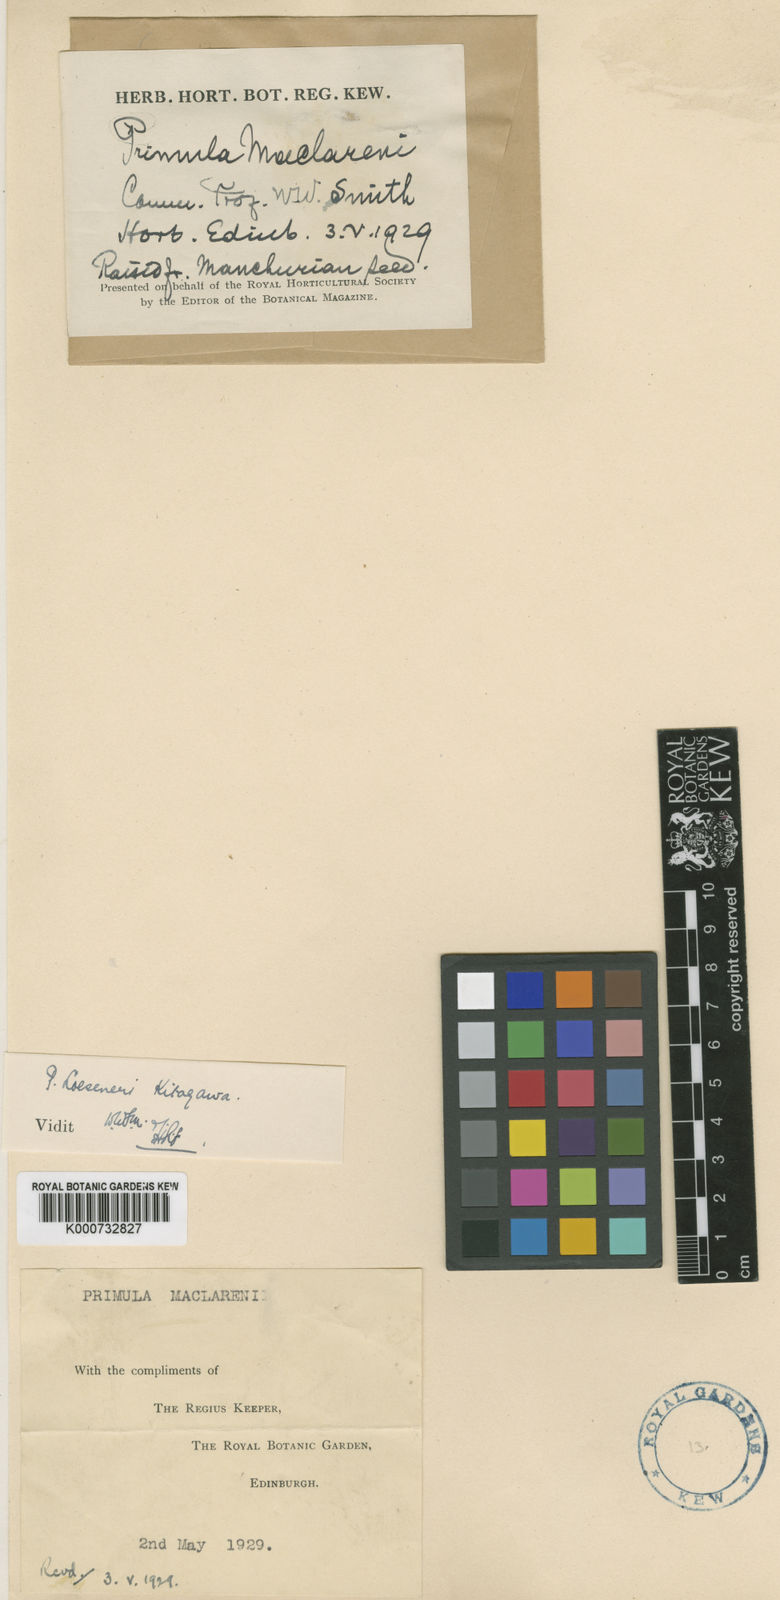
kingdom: Plantae
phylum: Tracheophyta
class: Magnoliopsida
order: Ericales
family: Primulaceae
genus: Primula
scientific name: Primula
